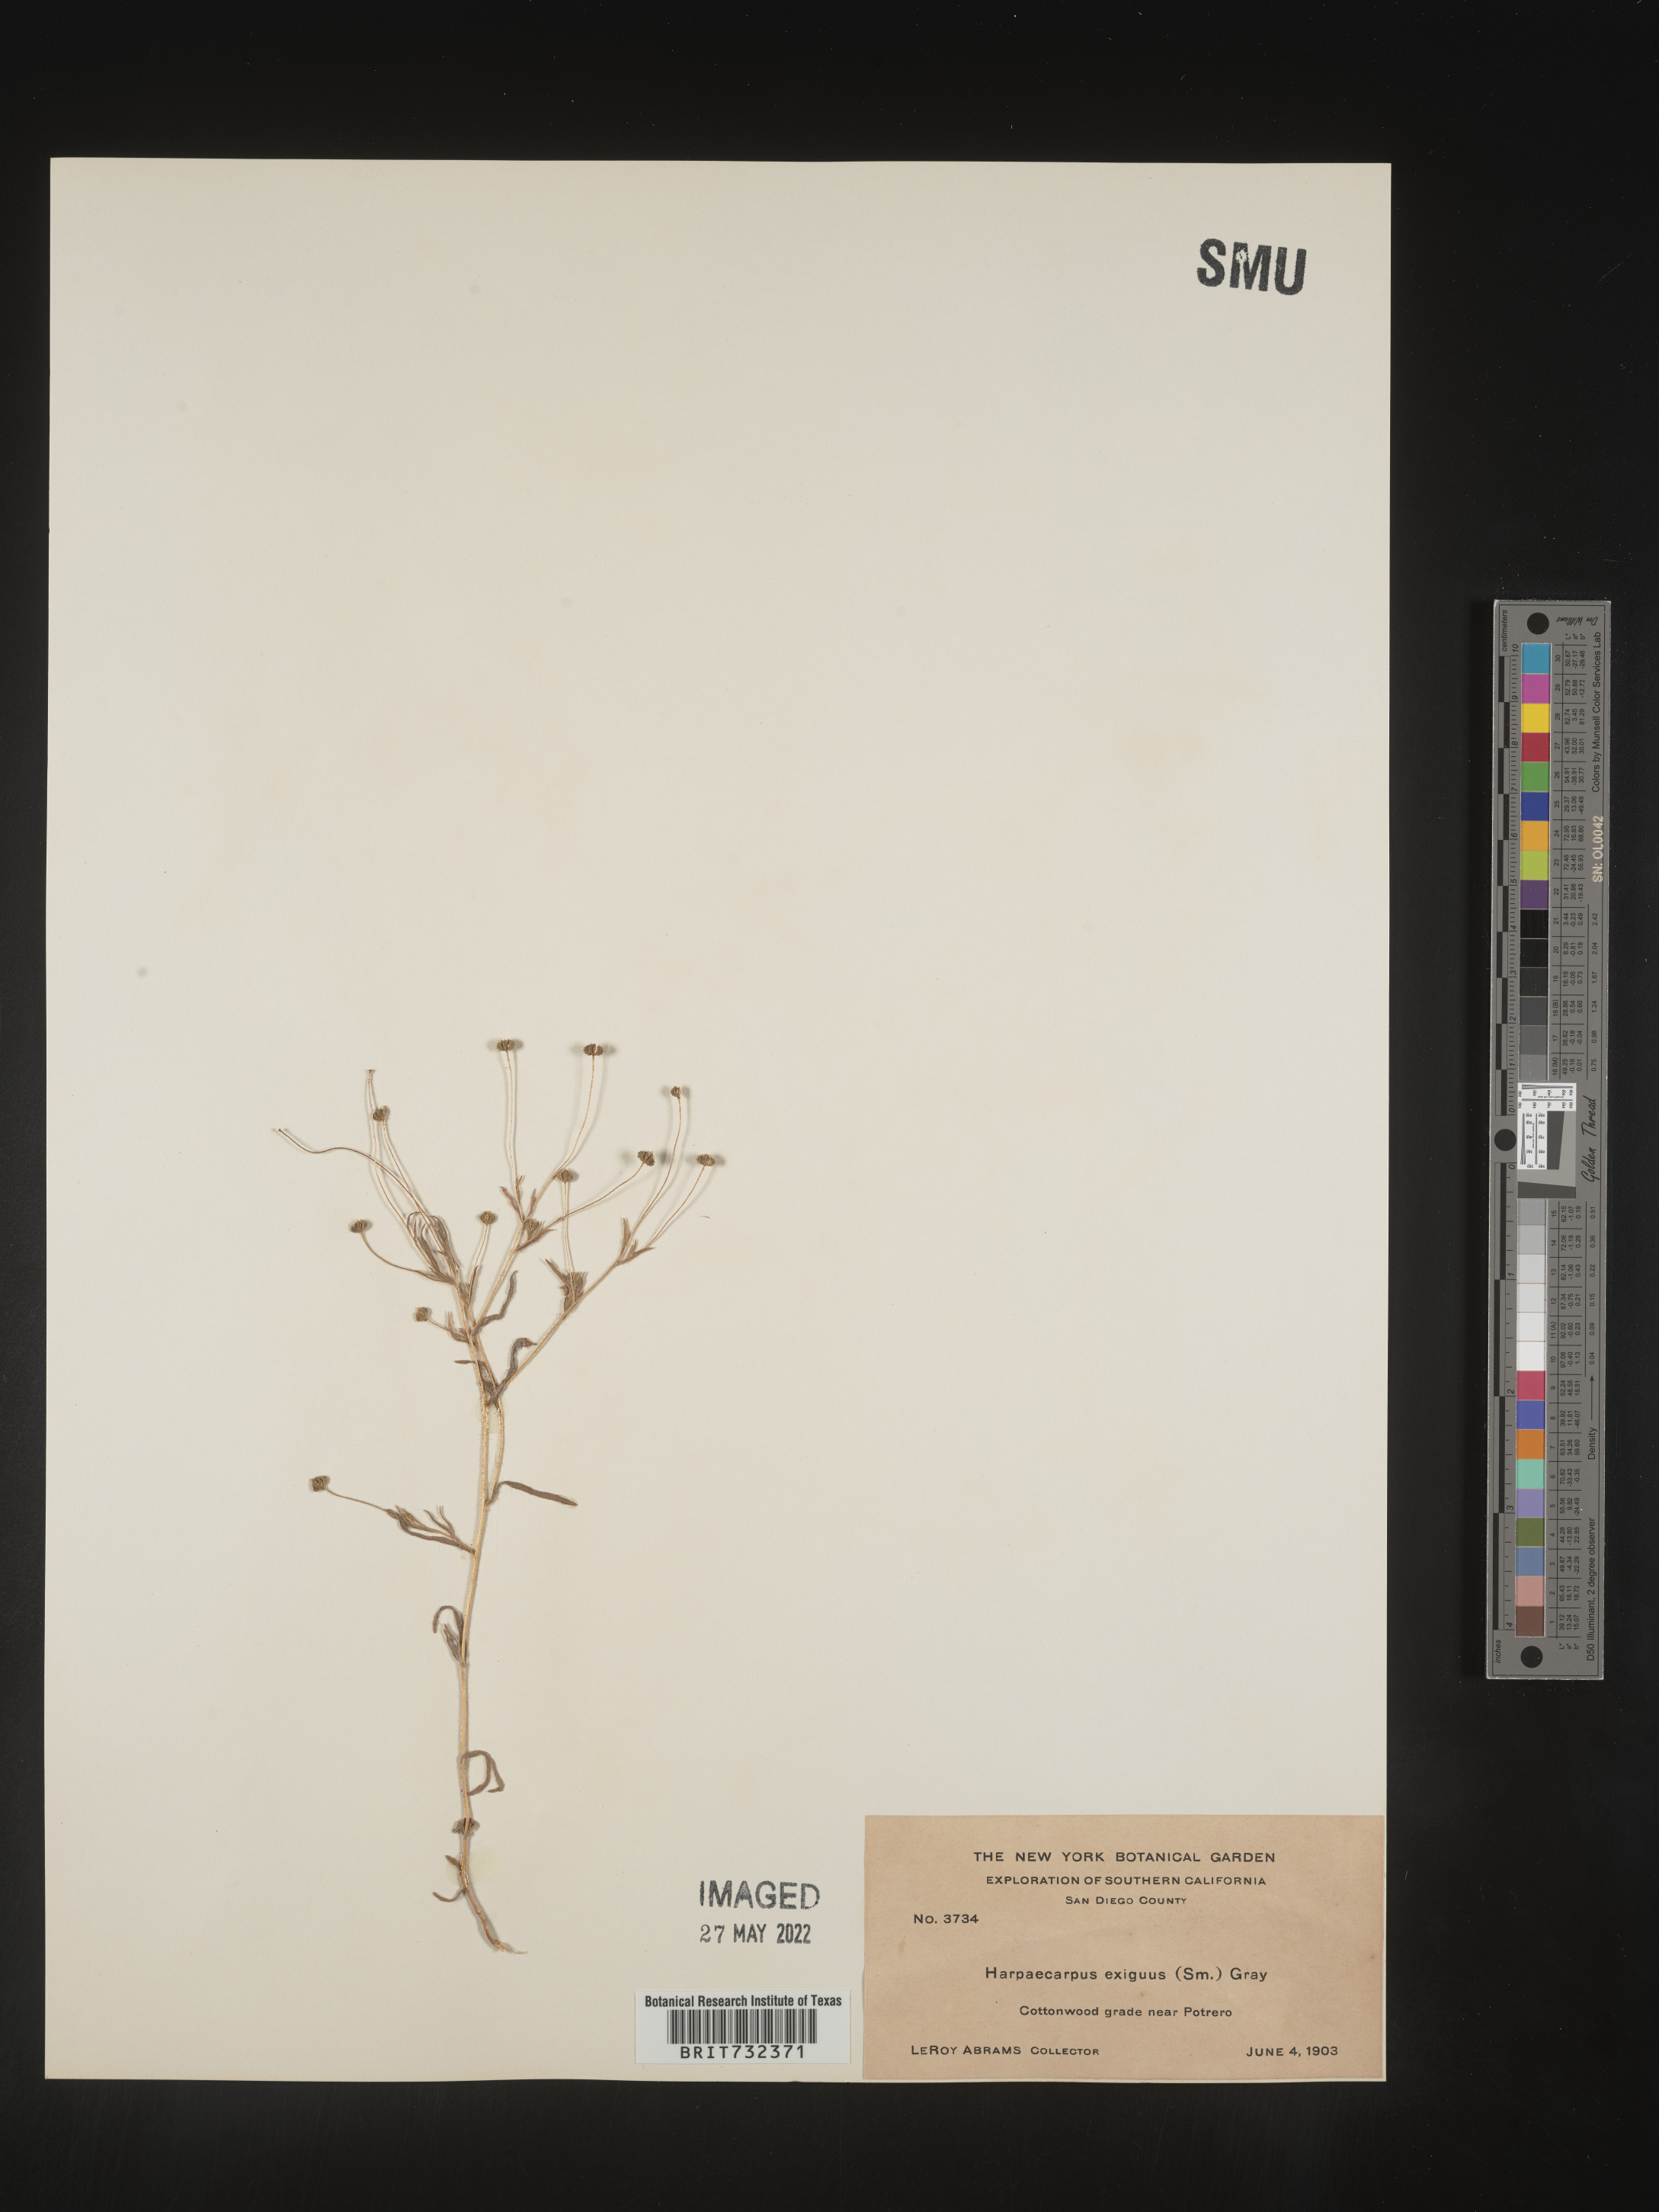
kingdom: Plantae
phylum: Tracheophyta
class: Magnoliopsida
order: Asterales
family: Asteraceae
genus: Madia
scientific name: Madia
